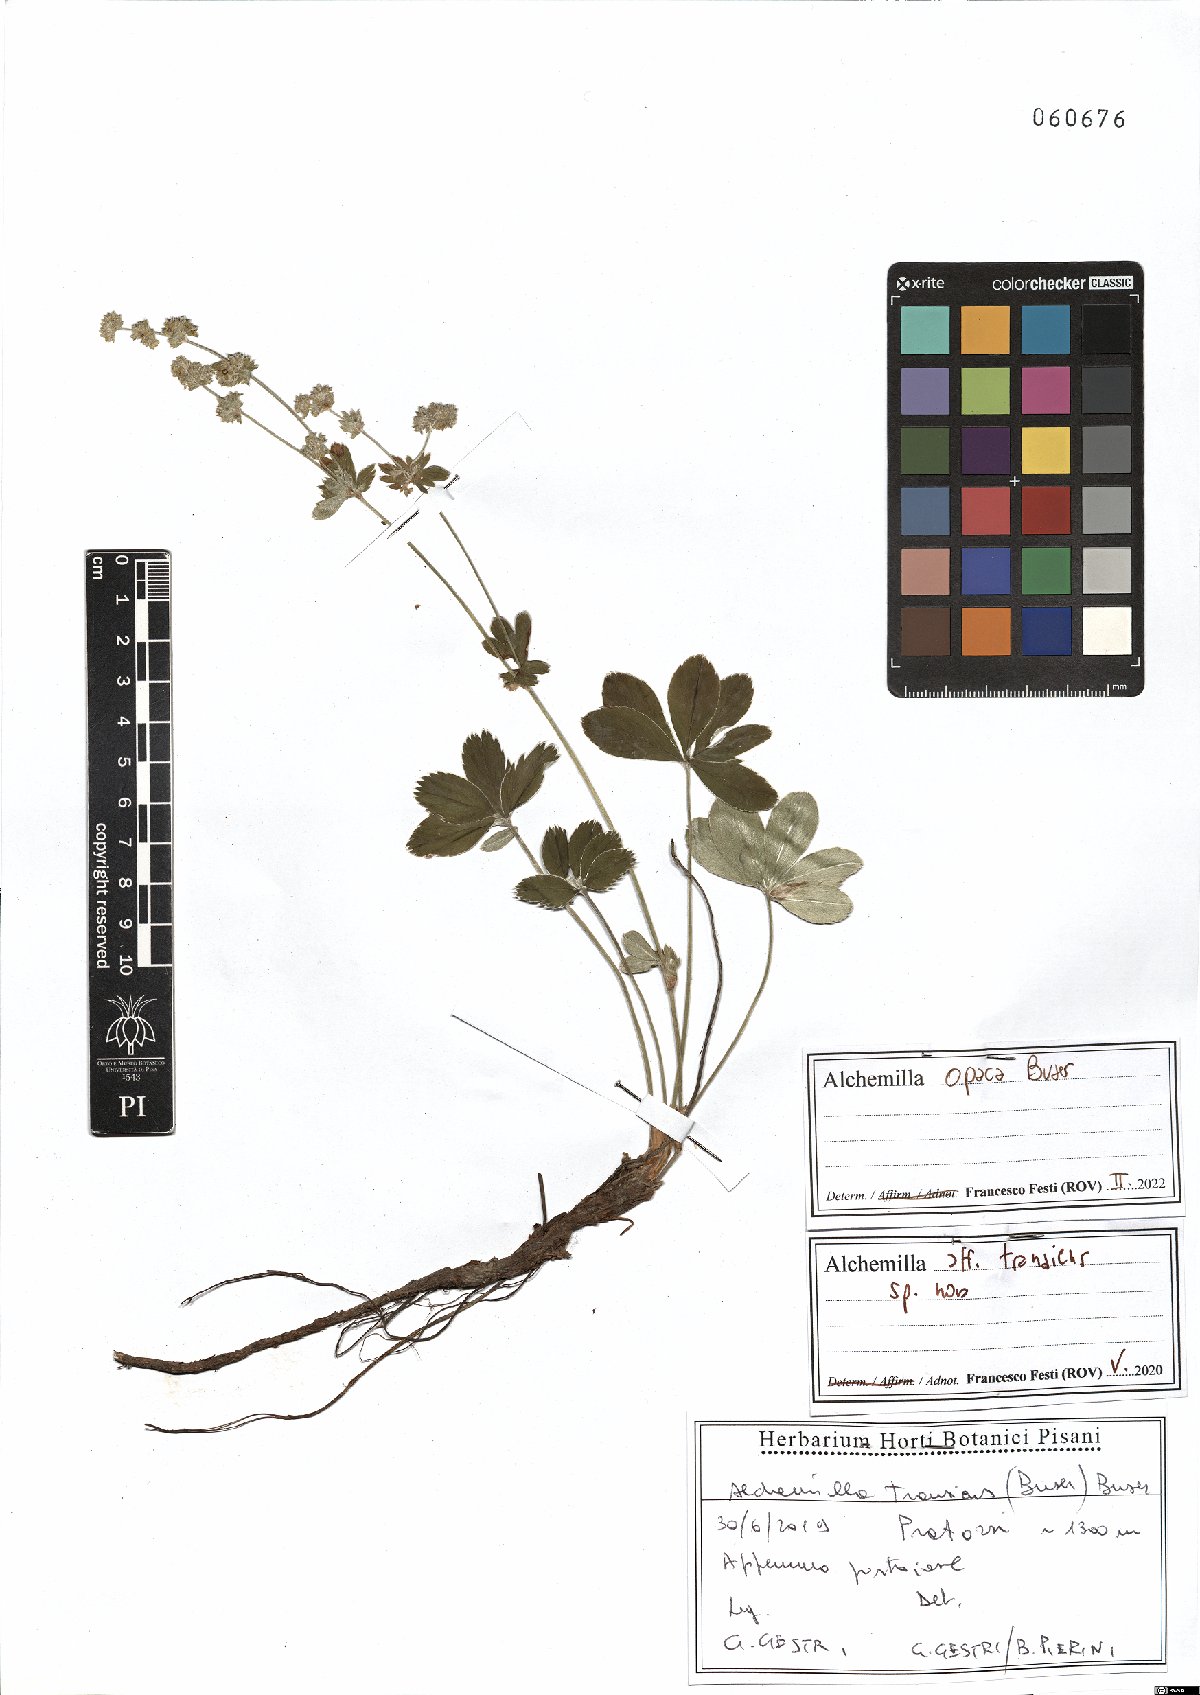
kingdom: Plantae
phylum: Tracheophyta
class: Magnoliopsida
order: Rosales
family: Rosaceae
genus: Alchemilla
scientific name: Alchemilla opaca
